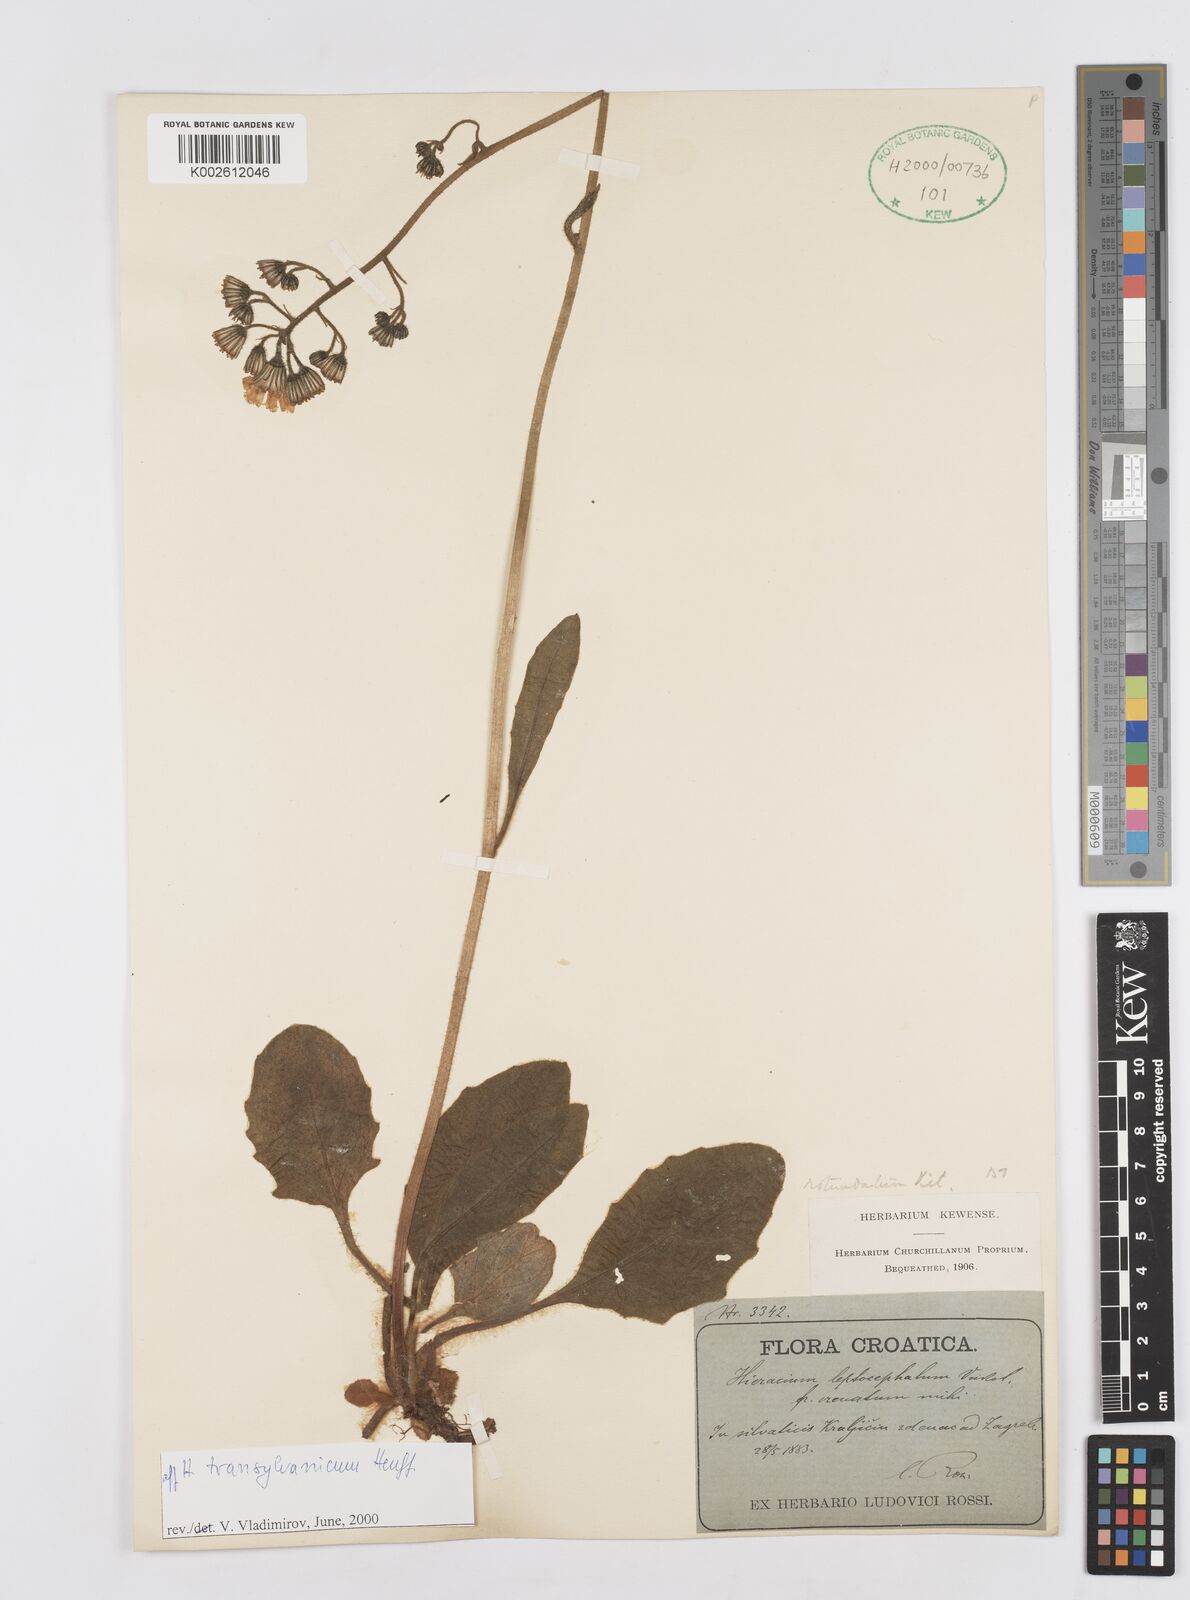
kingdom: Plantae
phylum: Tracheophyta
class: Magnoliopsida
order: Asterales
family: Asteraceae
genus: Hieracium
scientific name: Hieracium transylvanicum
